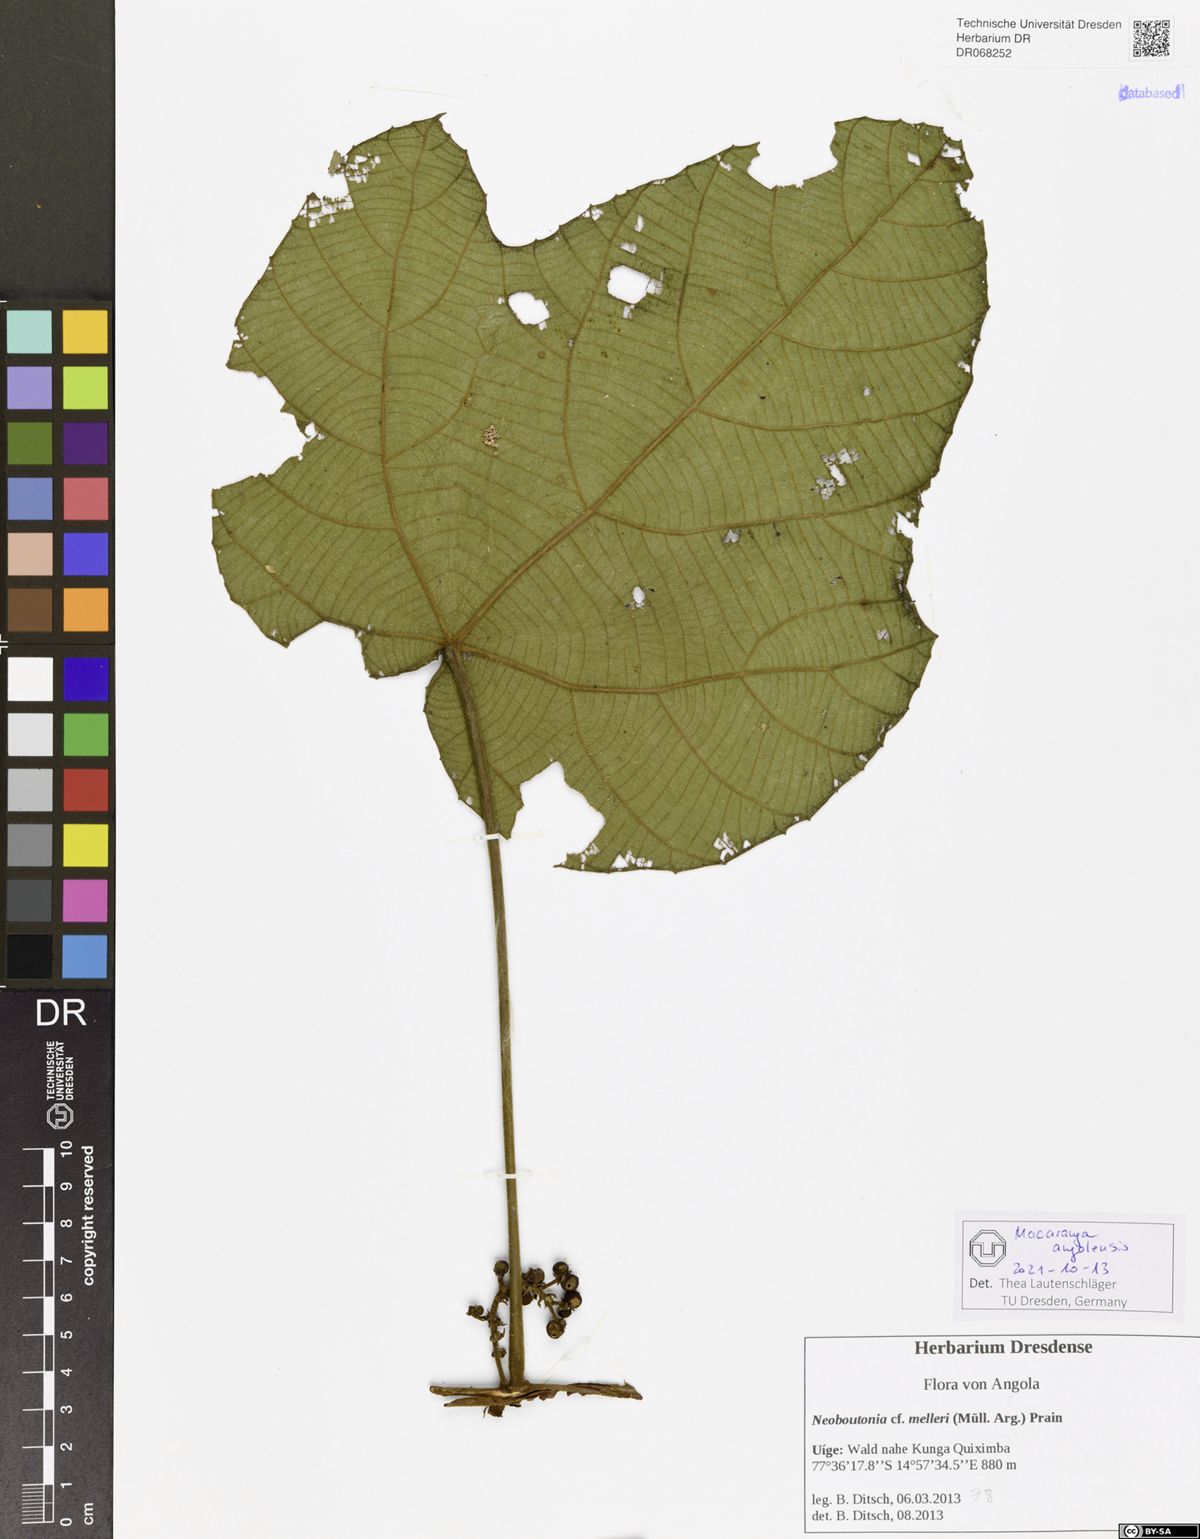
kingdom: Plantae
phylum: Tracheophyta
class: Magnoliopsida
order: Malpighiales
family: Euphorbiaceae
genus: Macaranga
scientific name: Macaranga angolensis
